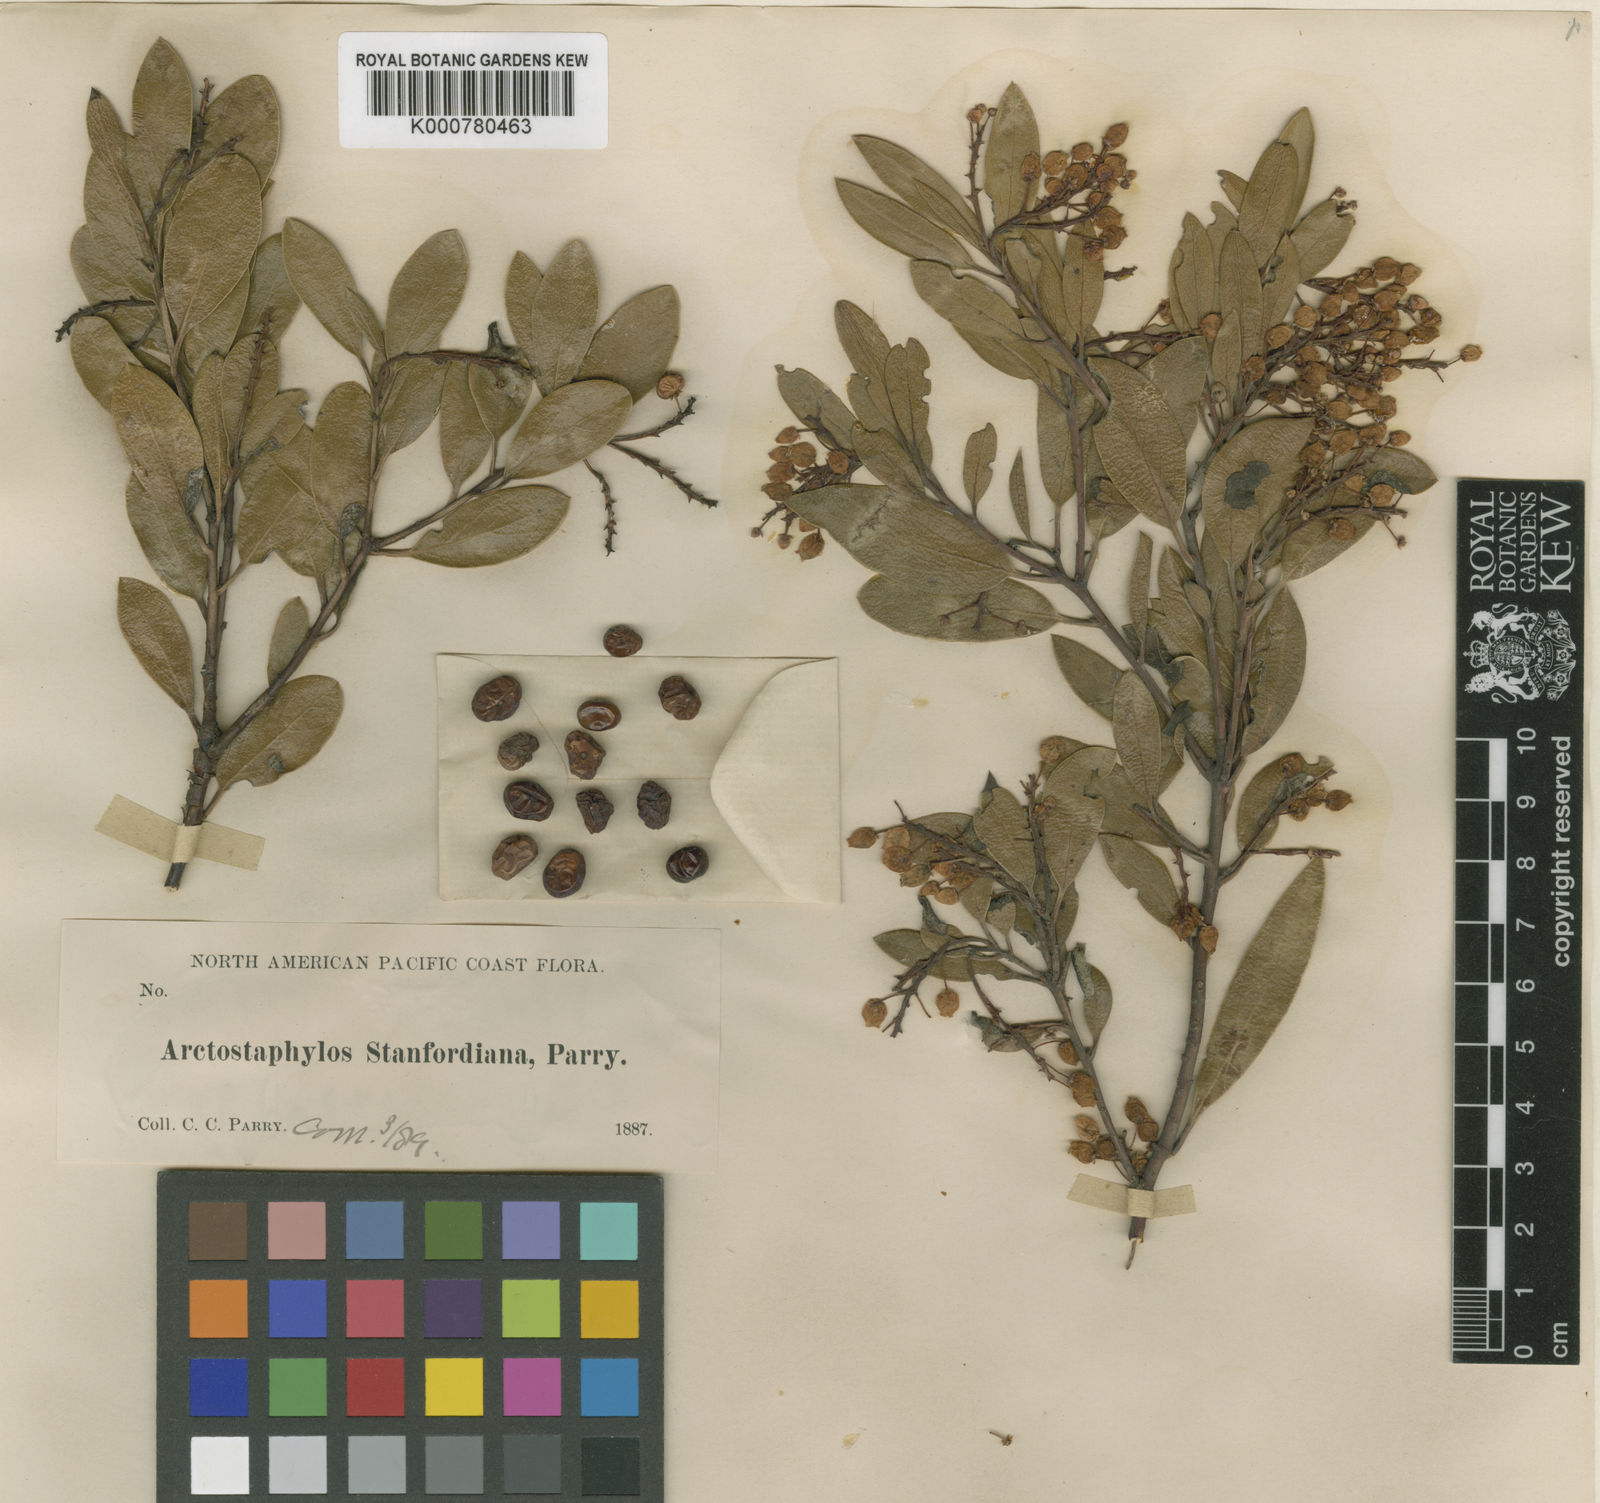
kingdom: Plantae
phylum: Tracheophyta
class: Magnoliopsida
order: Ericales
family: Ericaceae
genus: Arctostaphylos
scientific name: Arctostaphylos stanfordiana
